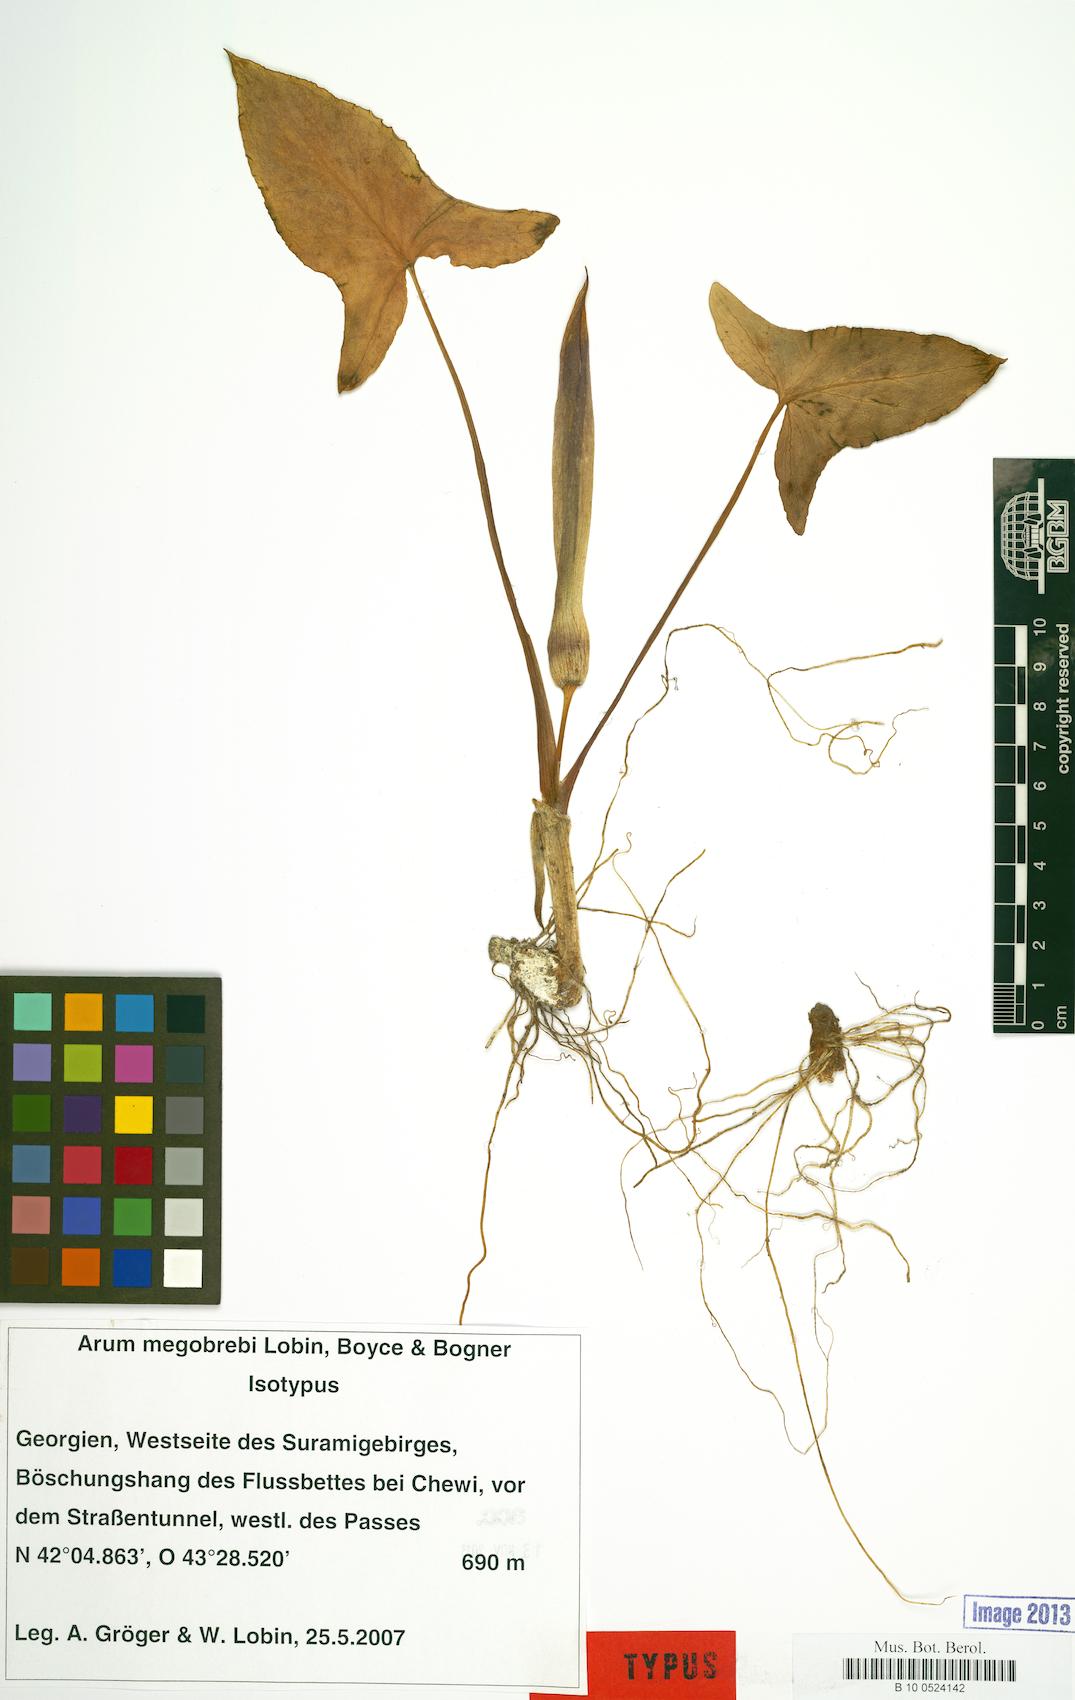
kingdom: Plantae
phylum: Tracheophyta
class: Liliopsida
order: Alismatales
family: Araceae
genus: Arum
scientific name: Arum megobrebi
